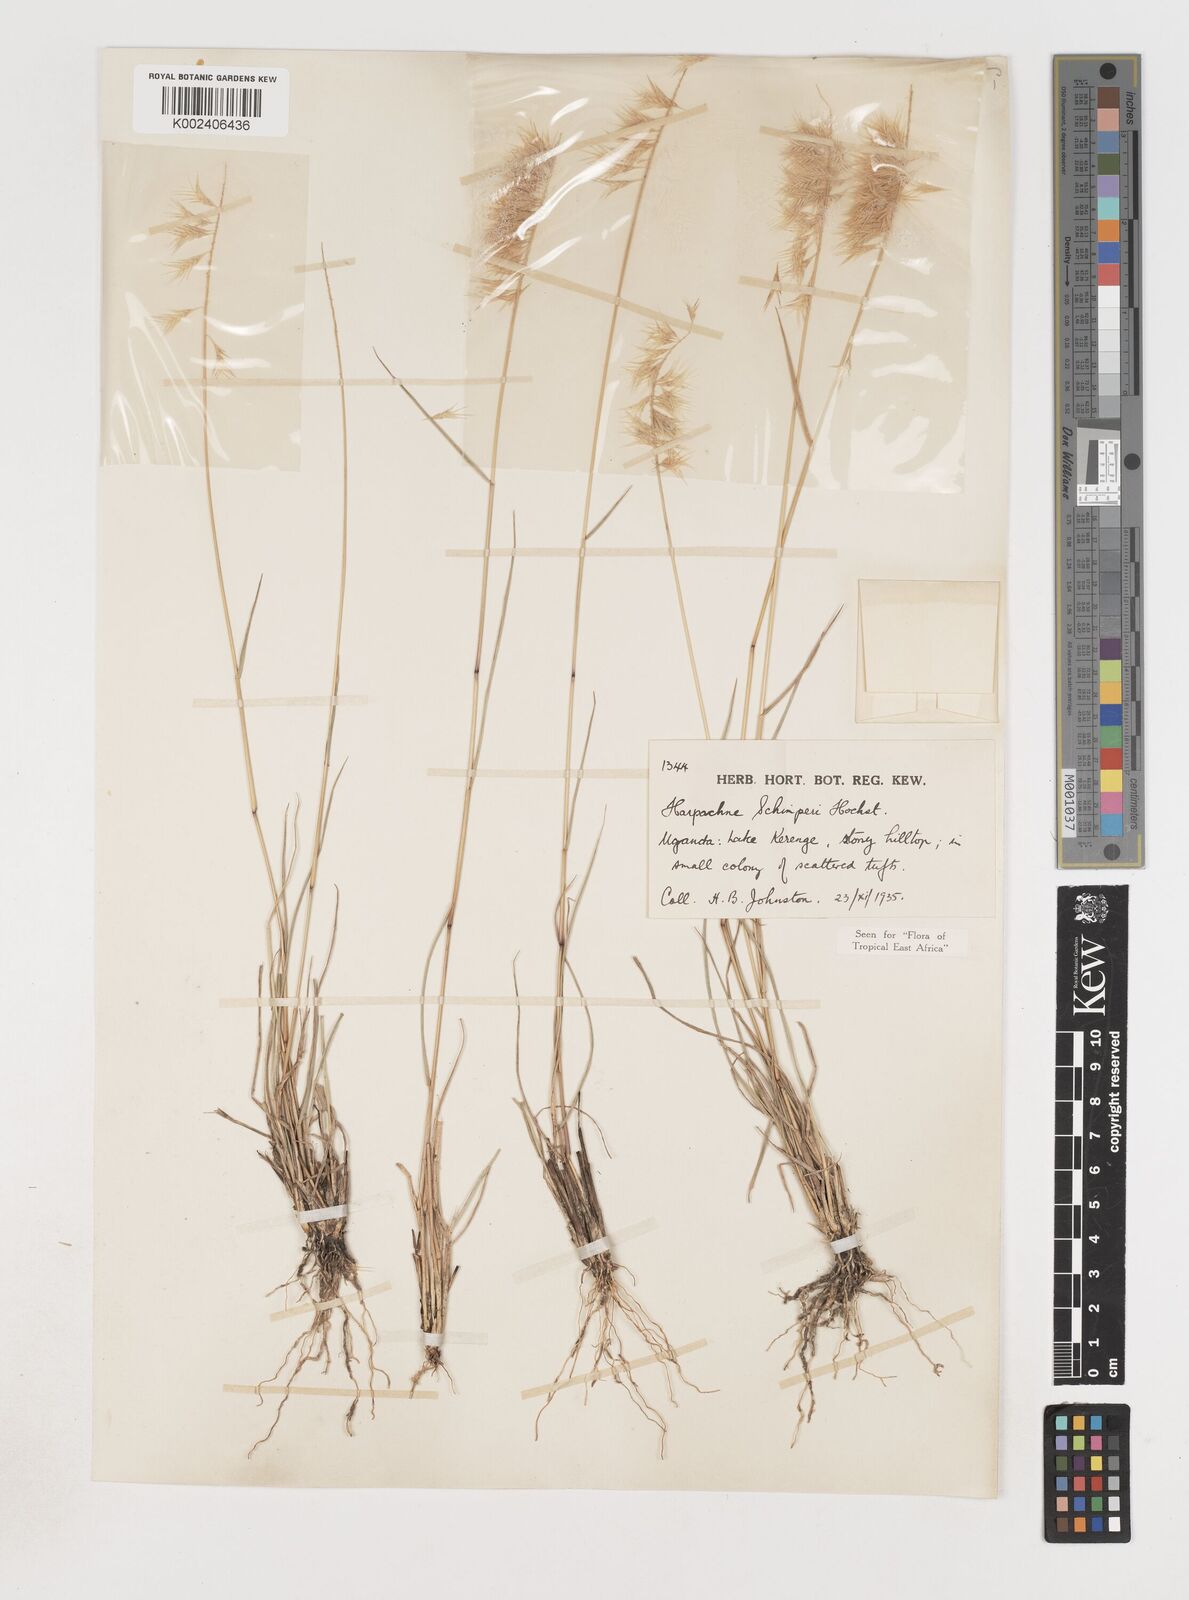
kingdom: Plantae
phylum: Tracheophyta
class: Liliopsida
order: Poales
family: Poaceae
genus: Harpachne
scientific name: Harpachne schimperi
